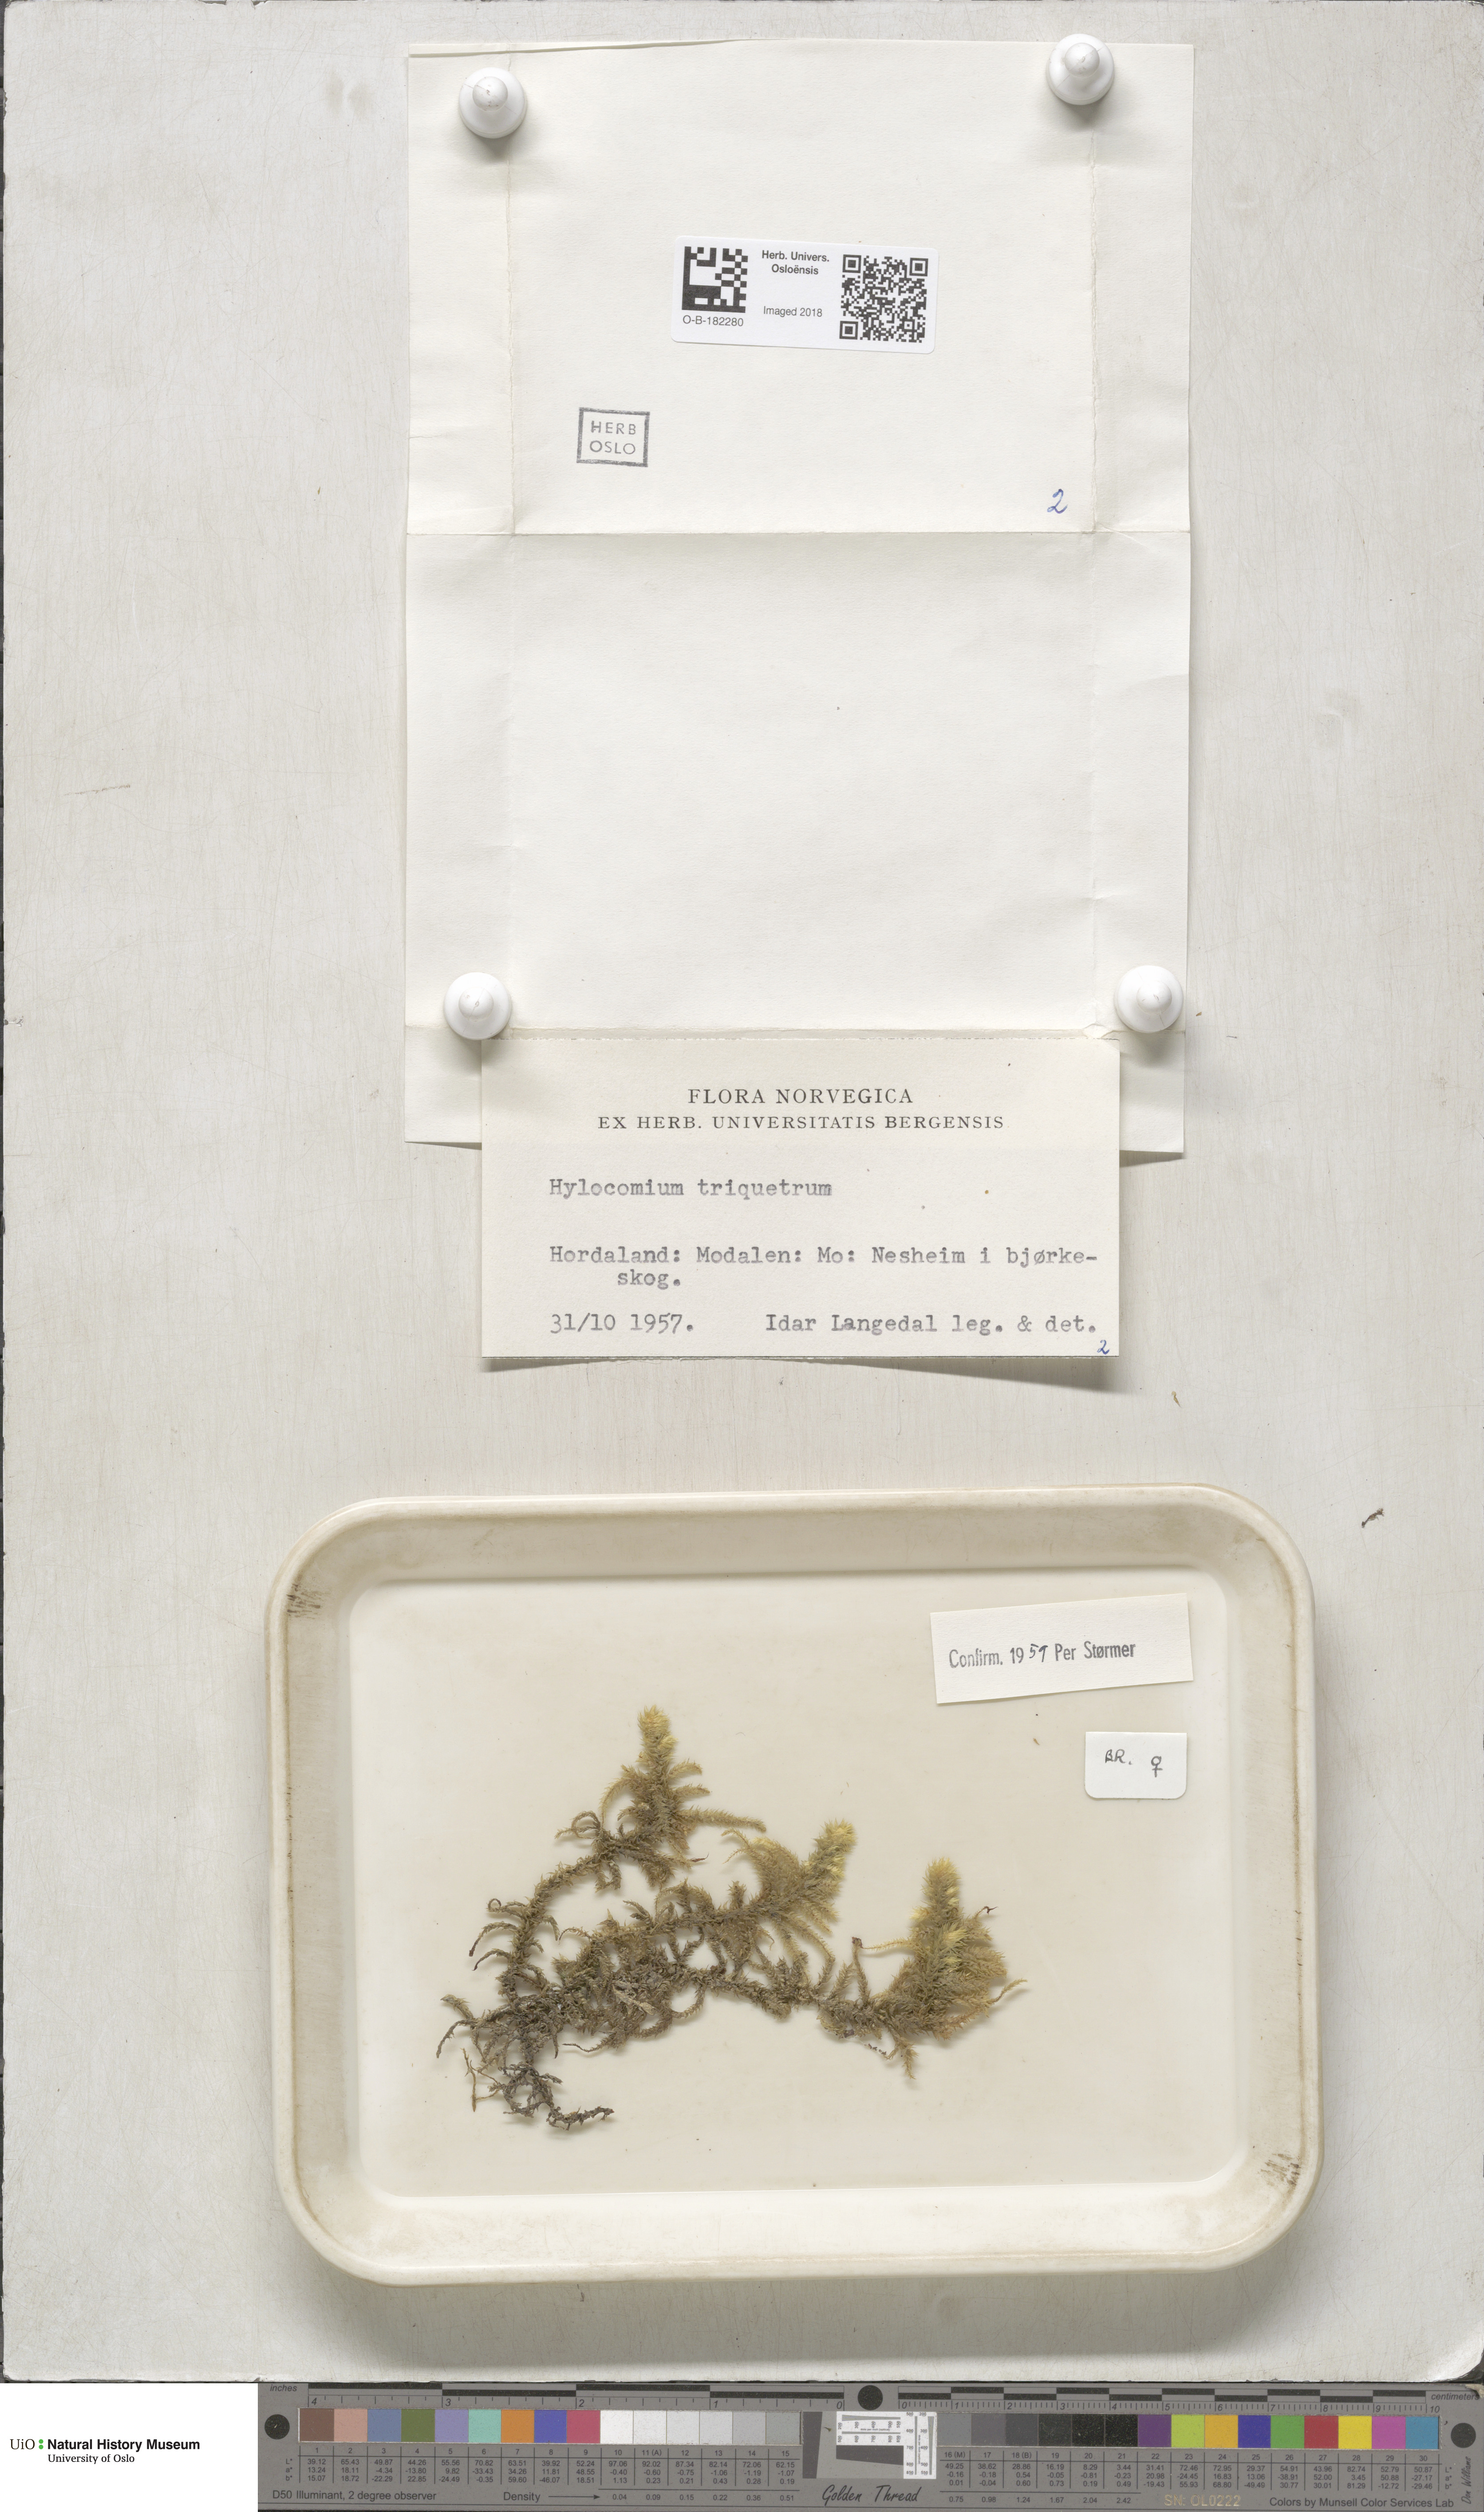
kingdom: Plantae
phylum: Bryophyta
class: Bryopsida
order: Hypnales
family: Hylocomiaceae
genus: Hylocomiadelphus
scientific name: Hylocomiadelphus triquetrus
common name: Rough goose neck moss
